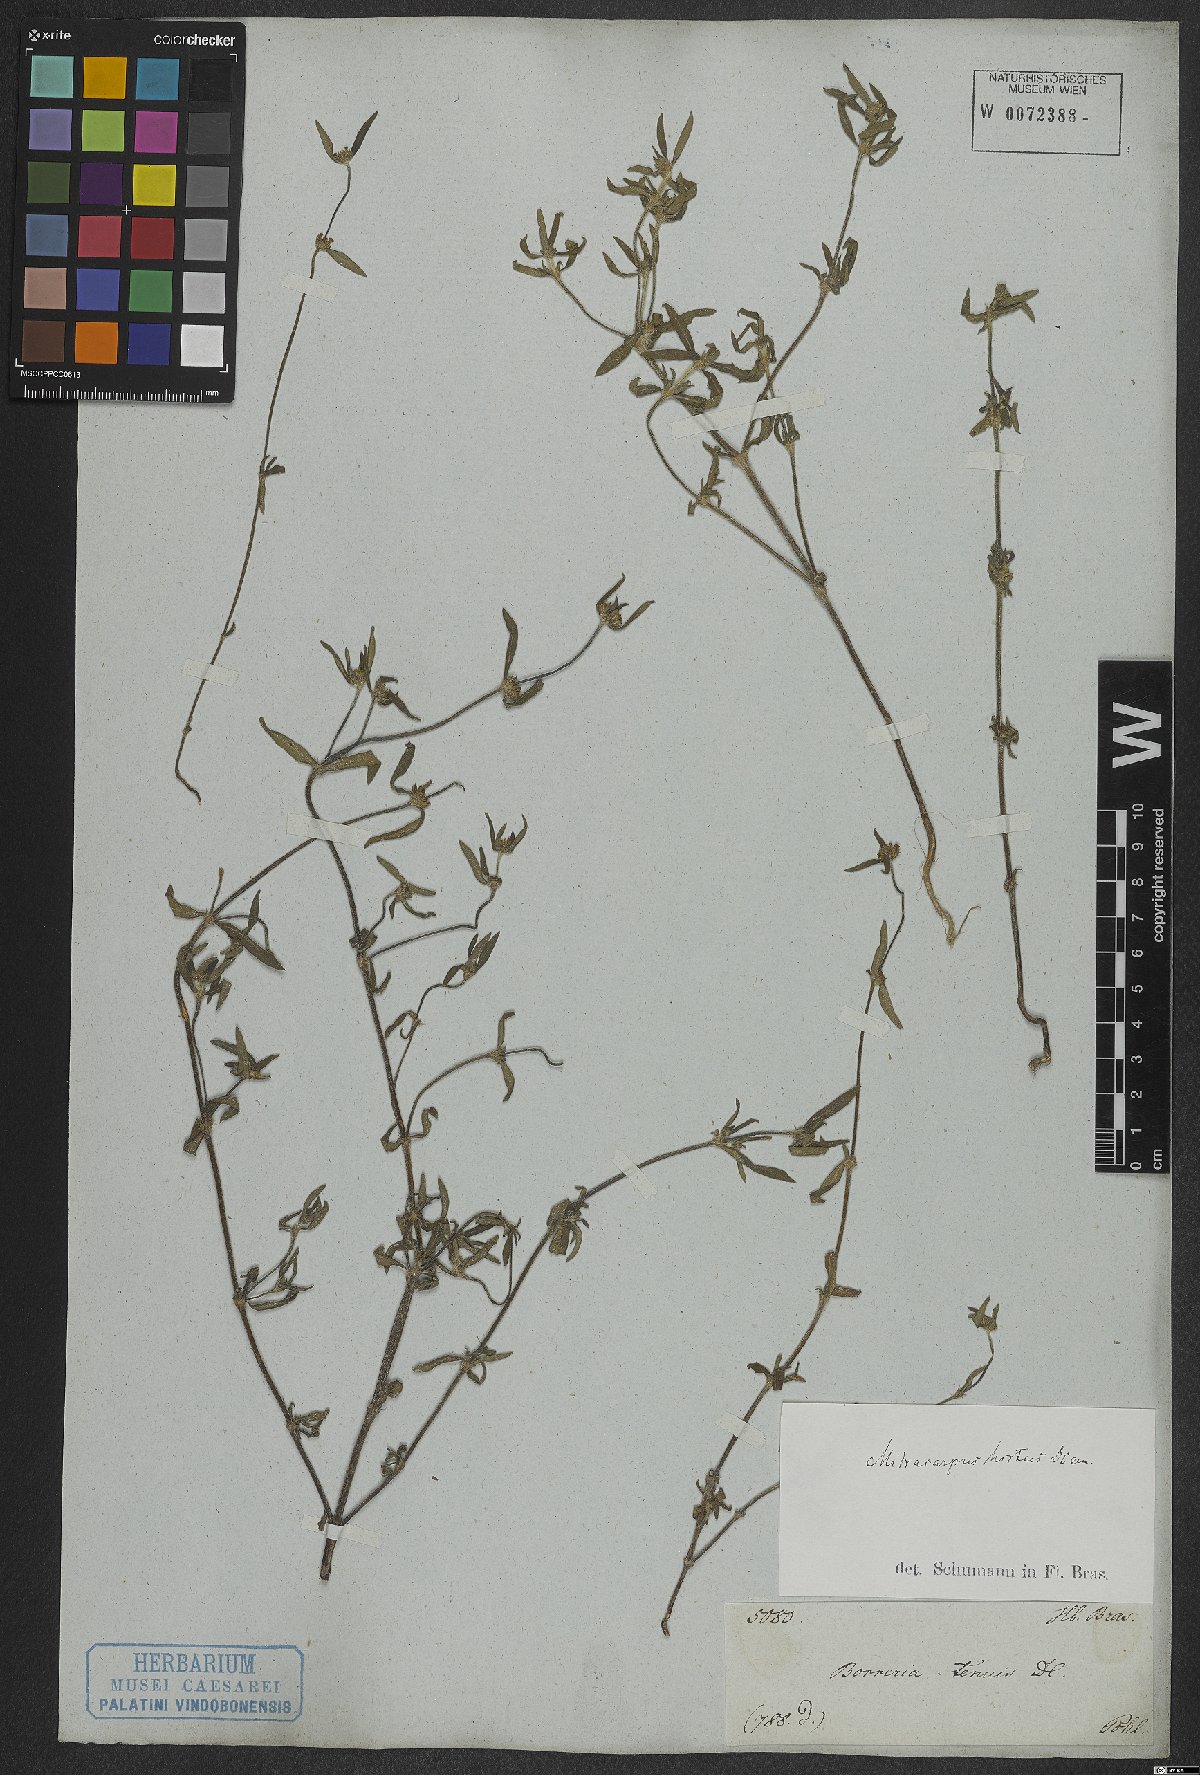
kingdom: Plantae
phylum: Tracheophyta
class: Magnoliopsida
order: Gentianales
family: Rubiaceae
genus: Mitracarpus
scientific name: Mitracarpus hirtus
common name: Tropical girdlepod
